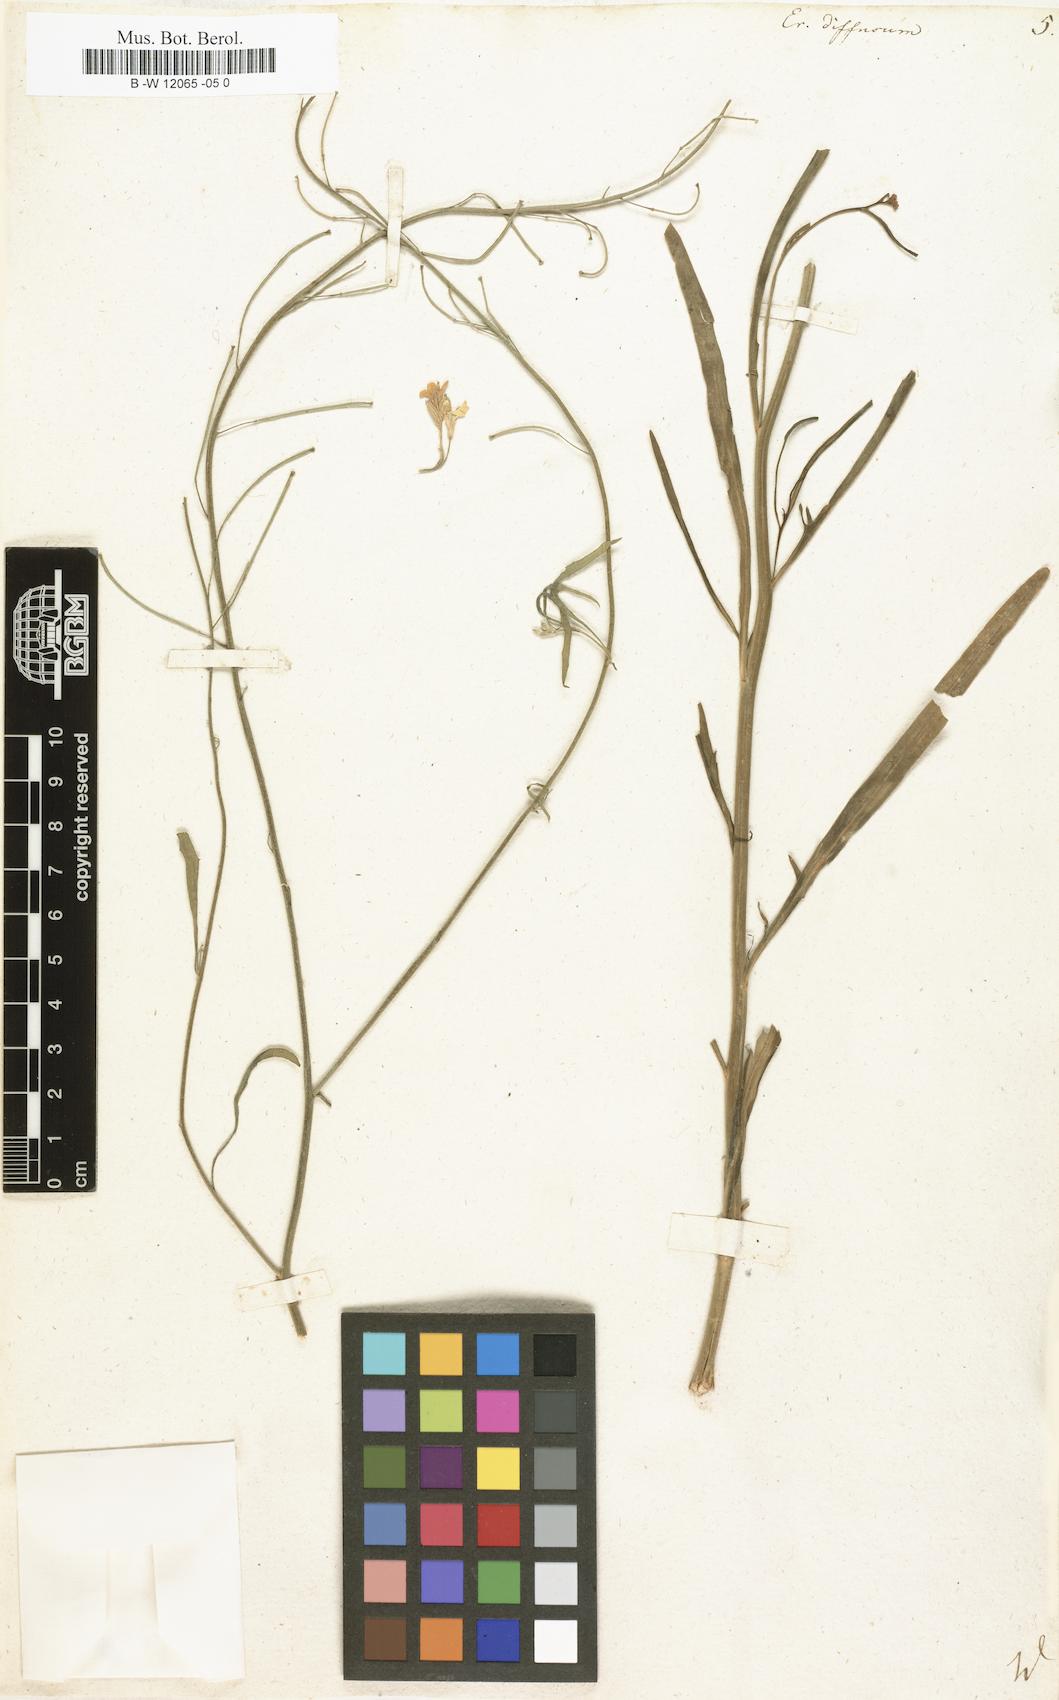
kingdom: Plantae
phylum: Tracheophyta
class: Magnoliopsida
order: Brassicales
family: Brassicaceae
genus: Erysimum
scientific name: Erysimum diffusum
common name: Diffuse wallflower
